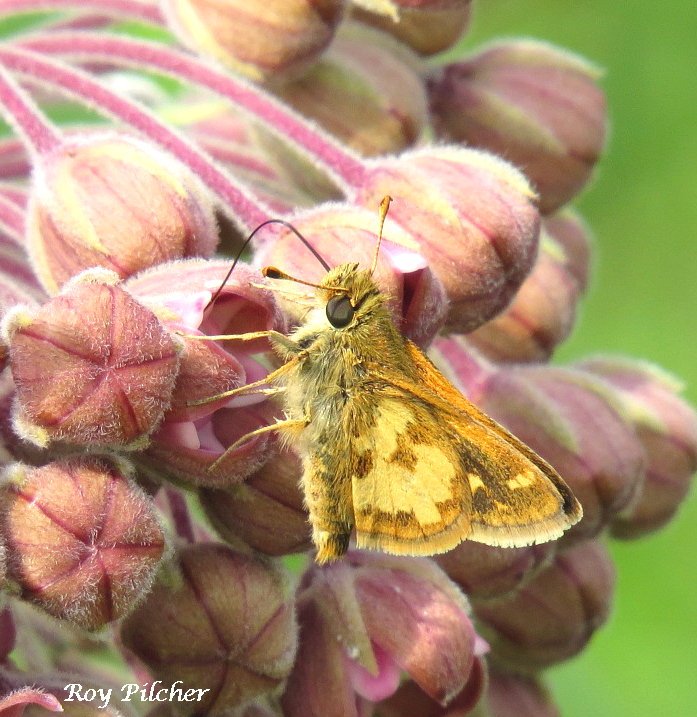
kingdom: Animalia
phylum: Arthropoda
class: Insecta
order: Lepidoptera
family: Hesperiidae
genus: Polites
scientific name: Polites coras
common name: Peck's Skipper
